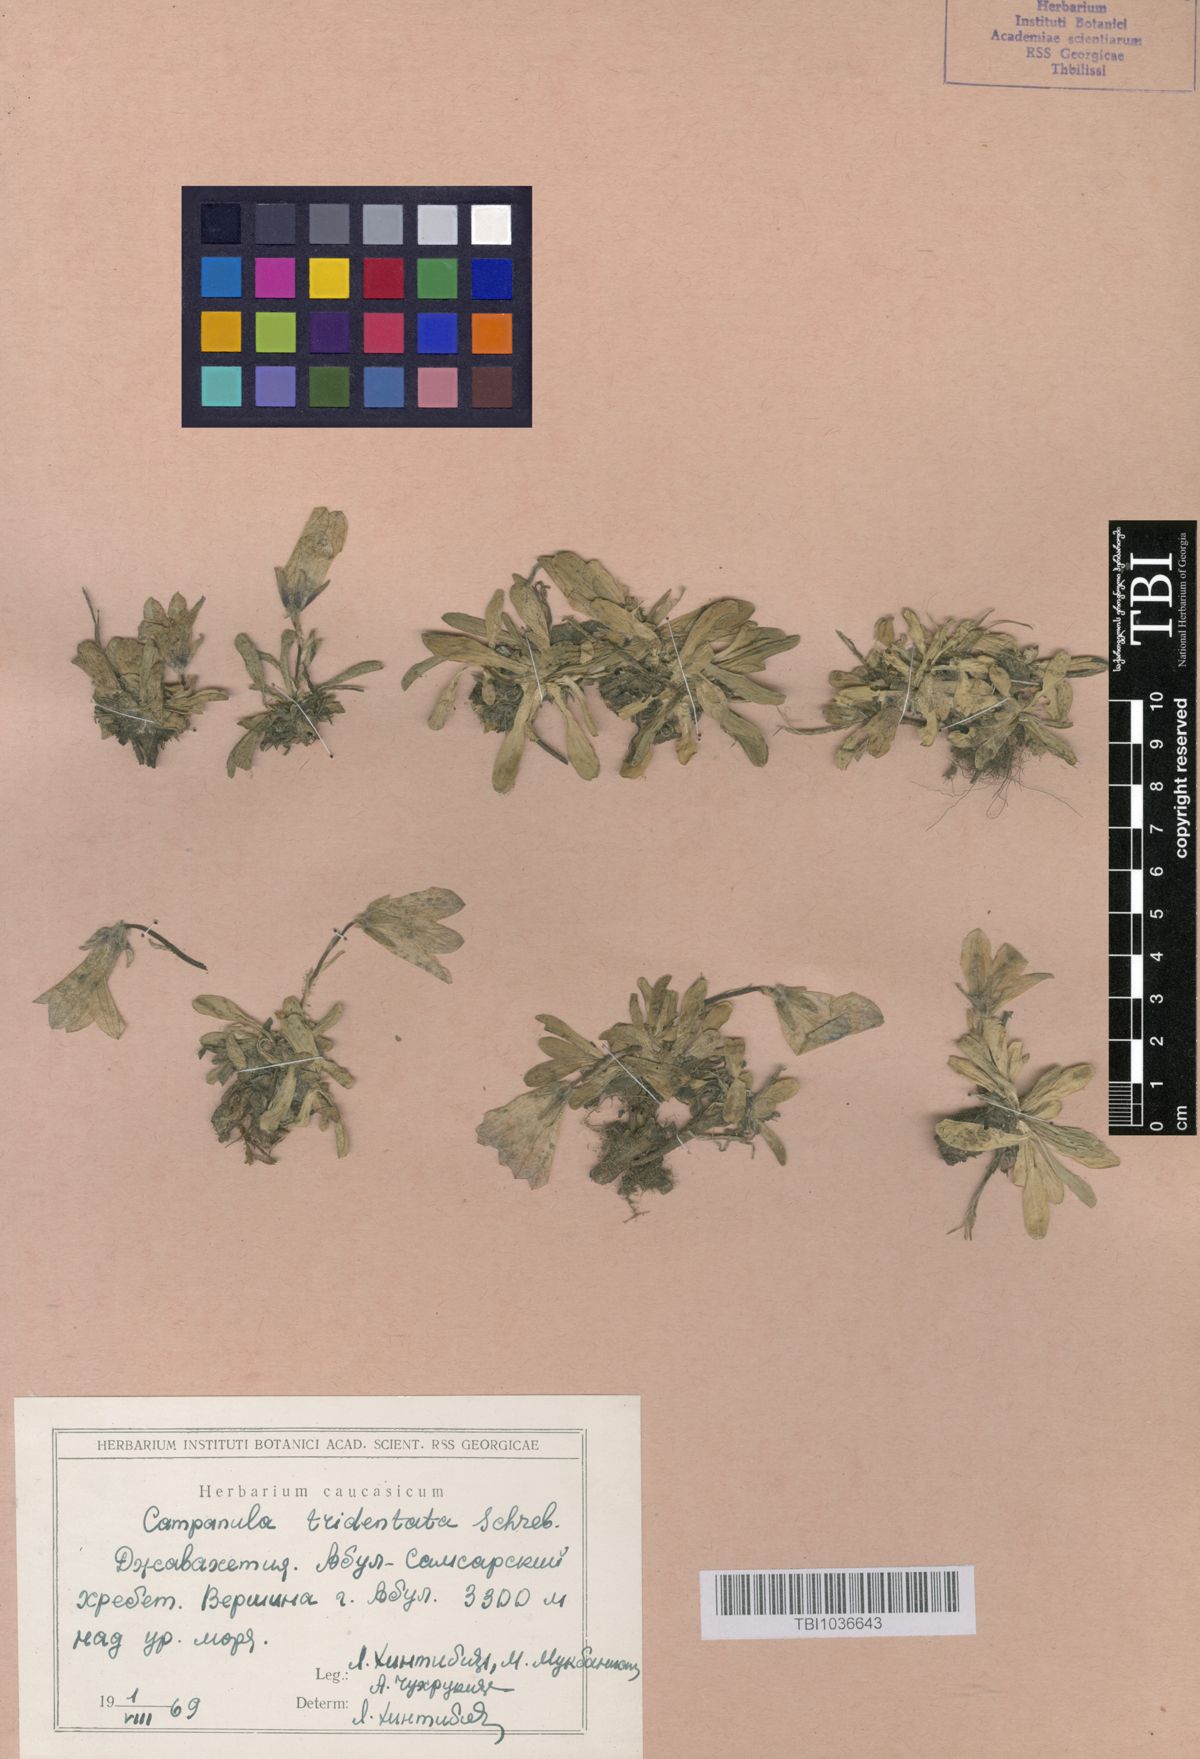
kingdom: Plantae
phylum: Tracheophyta
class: Magnoliopsida
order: Asterales
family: Campanulaceae
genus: Campanula
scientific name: Campanula tridentata
